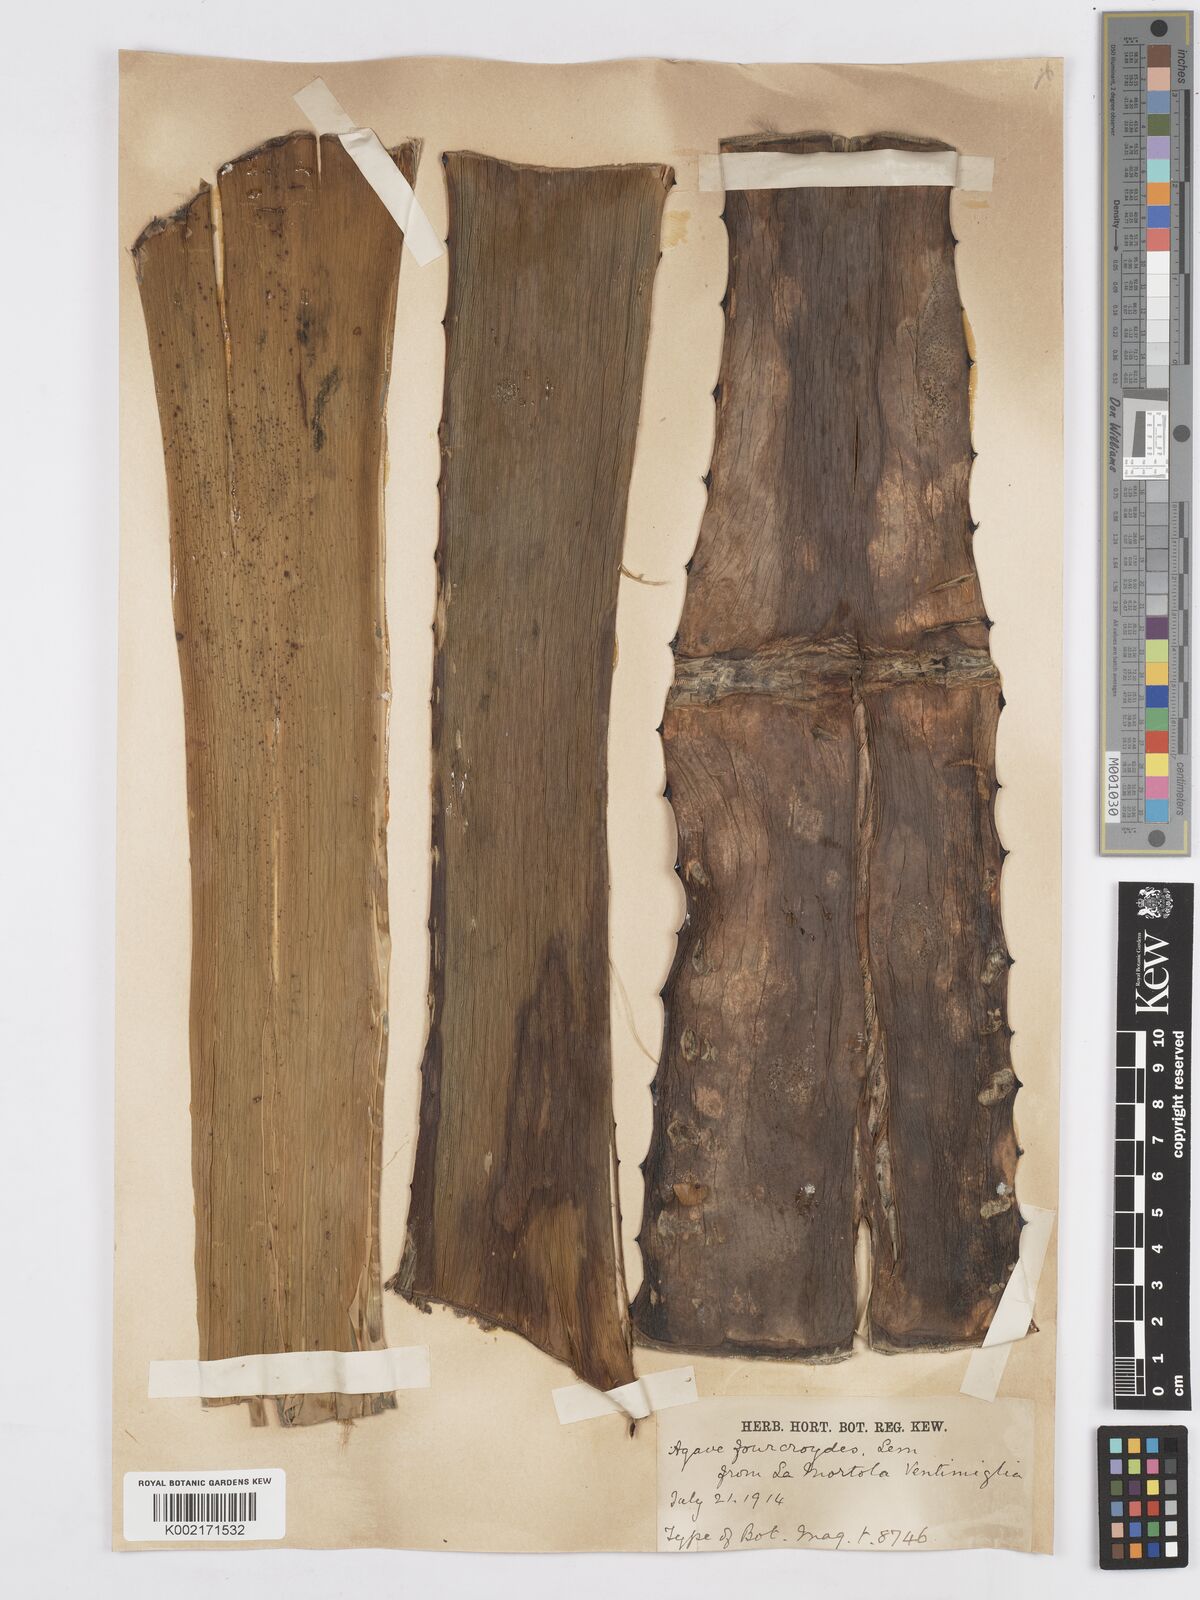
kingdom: Plantae
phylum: Tracheophyta
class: Liliopsida
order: Asparagales
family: Asparagaceae
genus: Agave
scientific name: Agave fourcroydes
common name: Henequen
